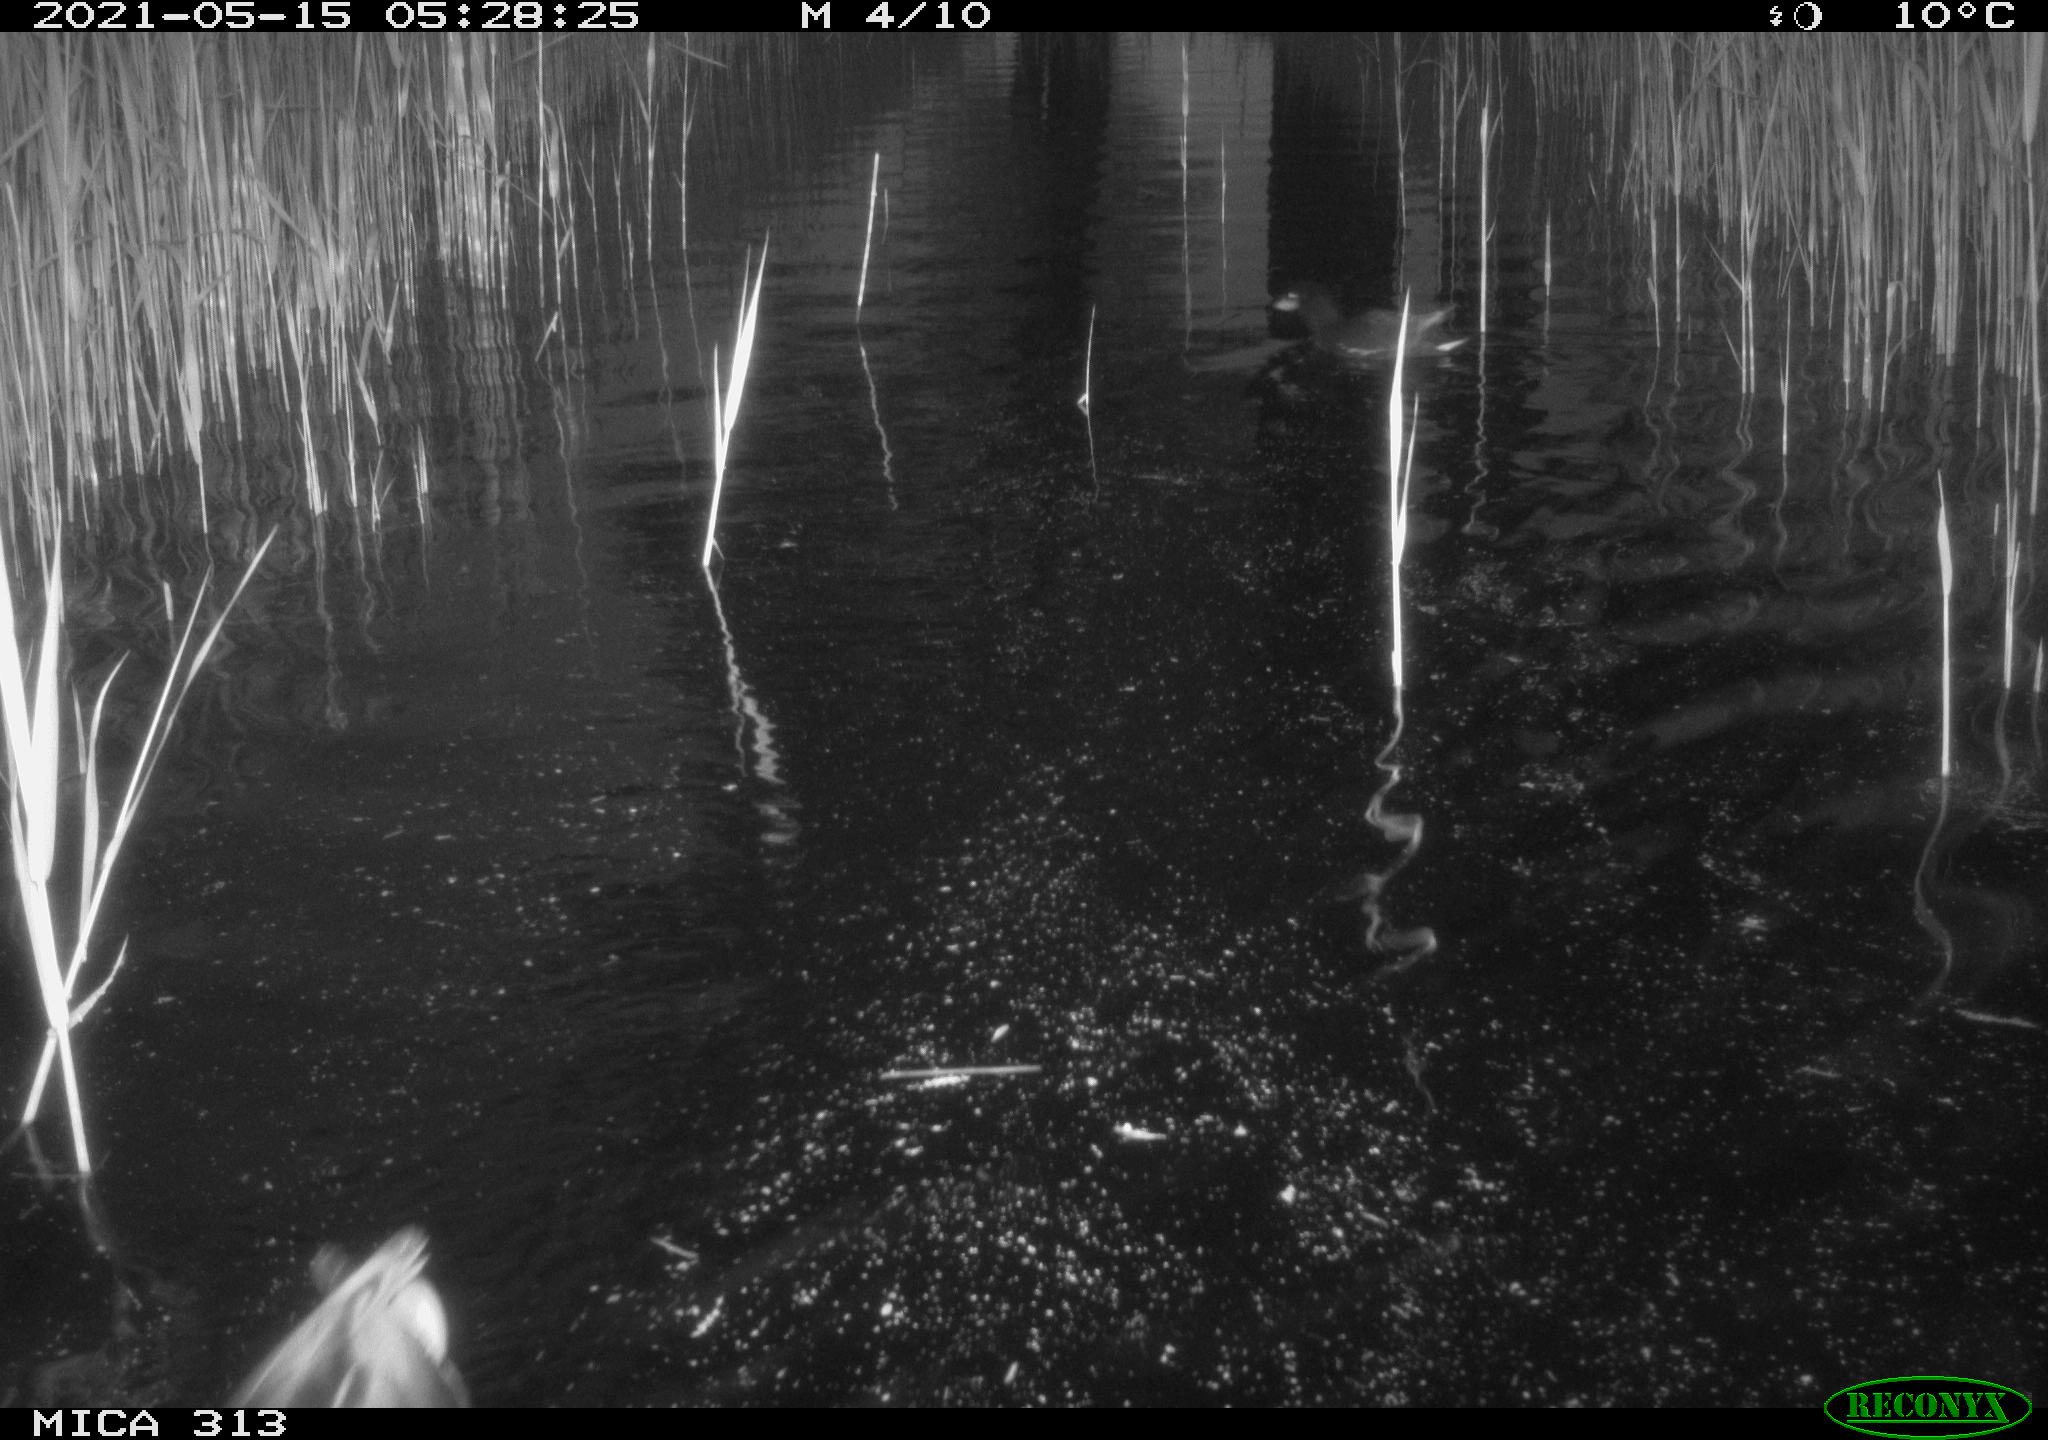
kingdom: Animalia
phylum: Chordata
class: Aves
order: Gruiformes
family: Rallidae
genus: Gallinula
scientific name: Gallinula chloropus
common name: Common moorhen
